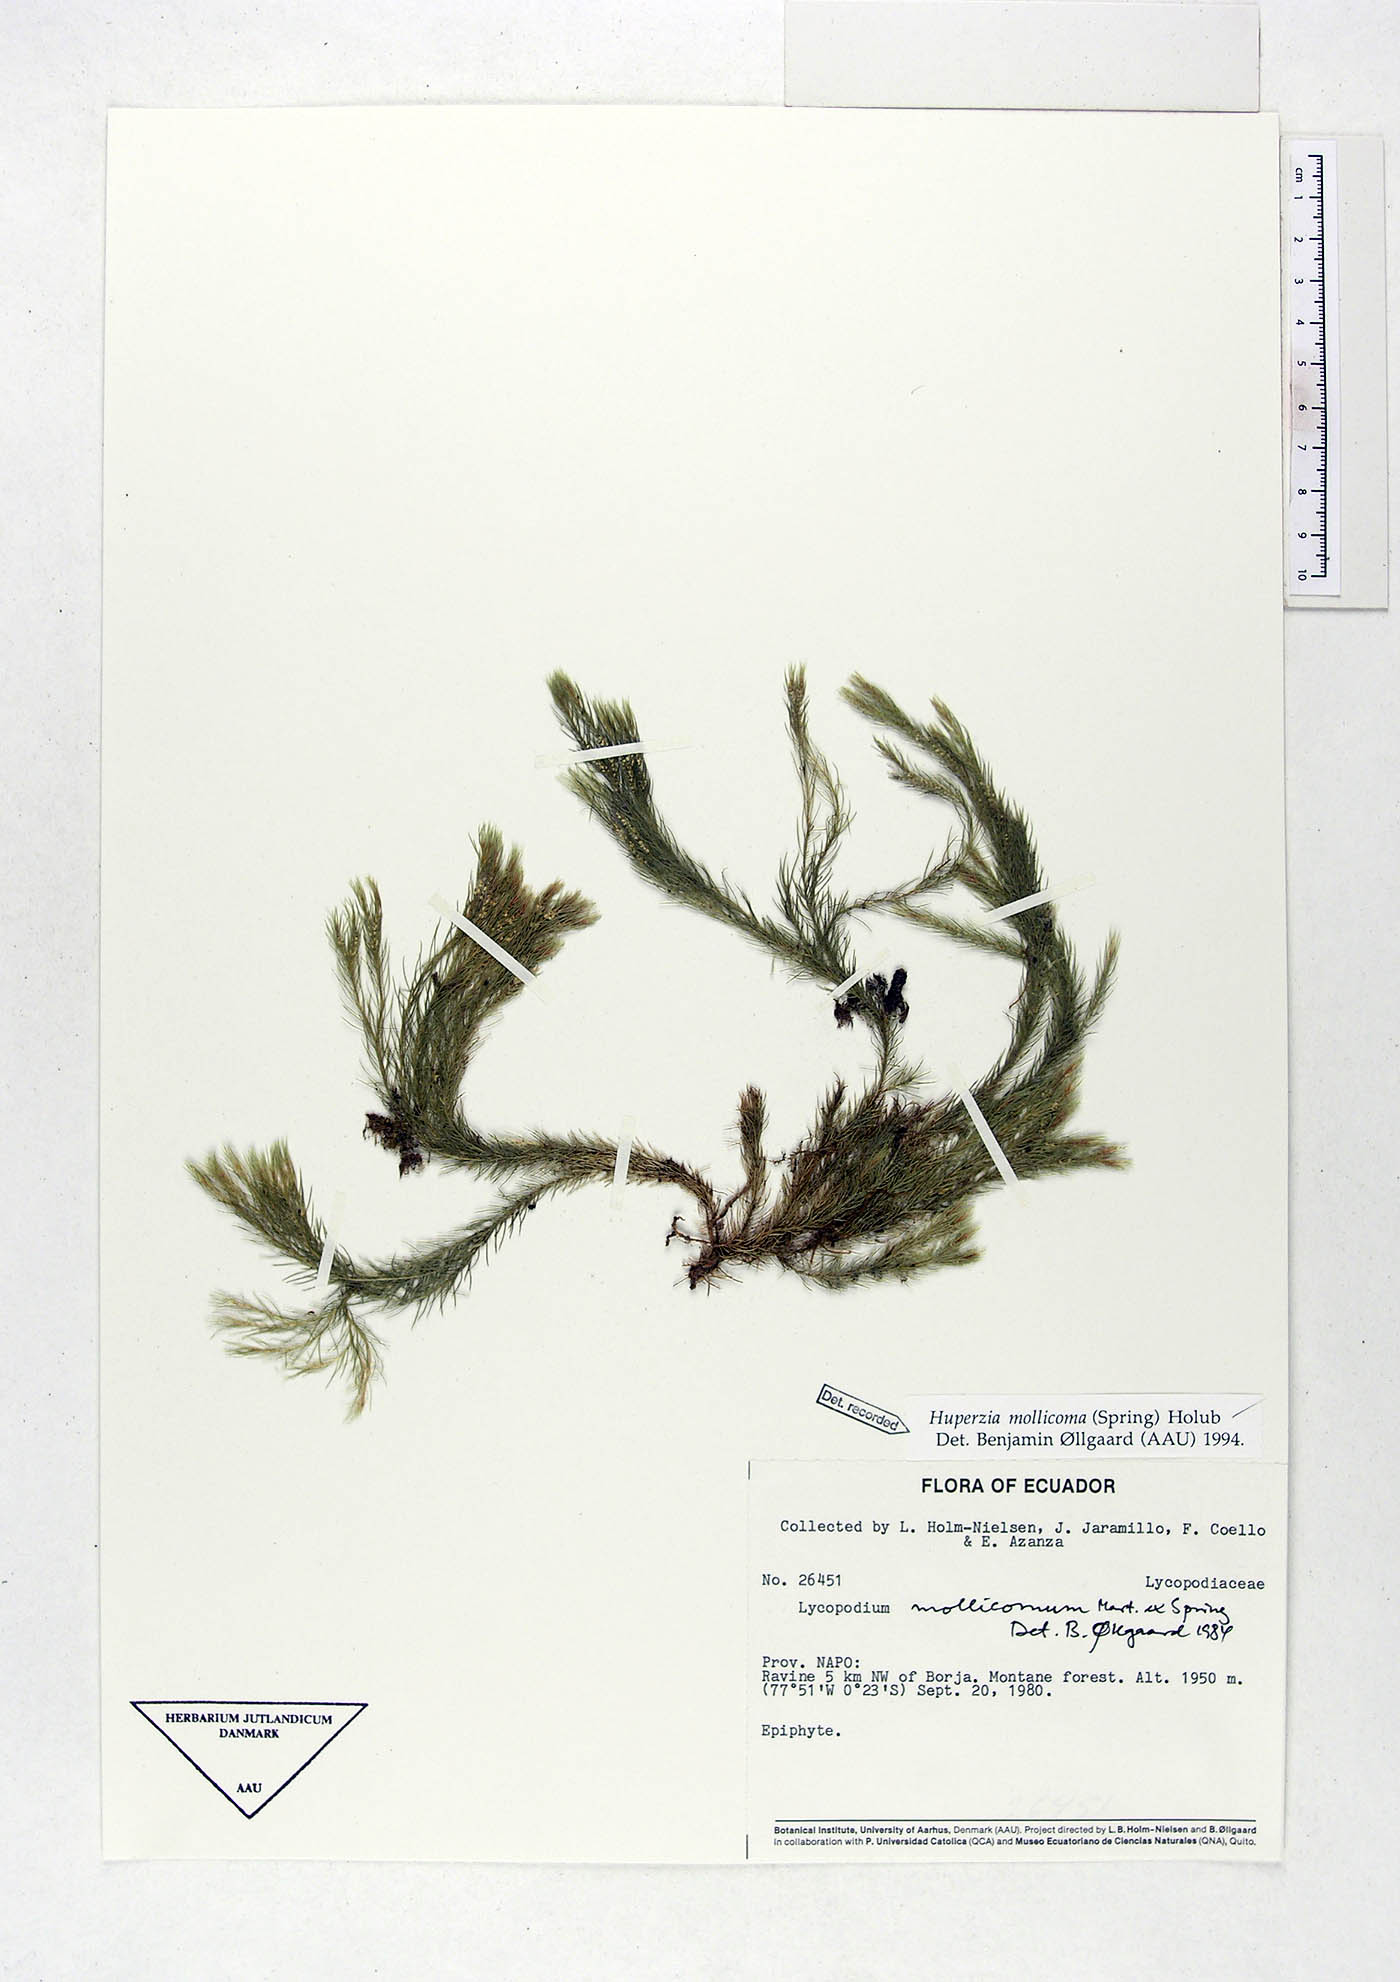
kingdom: Plantae
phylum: Tracheophyta
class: Lycopodiopsida
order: Lycopodiales
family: Lycopodiaceae
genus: Phlegmariurus
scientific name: Phlegmariurus mollicomus
